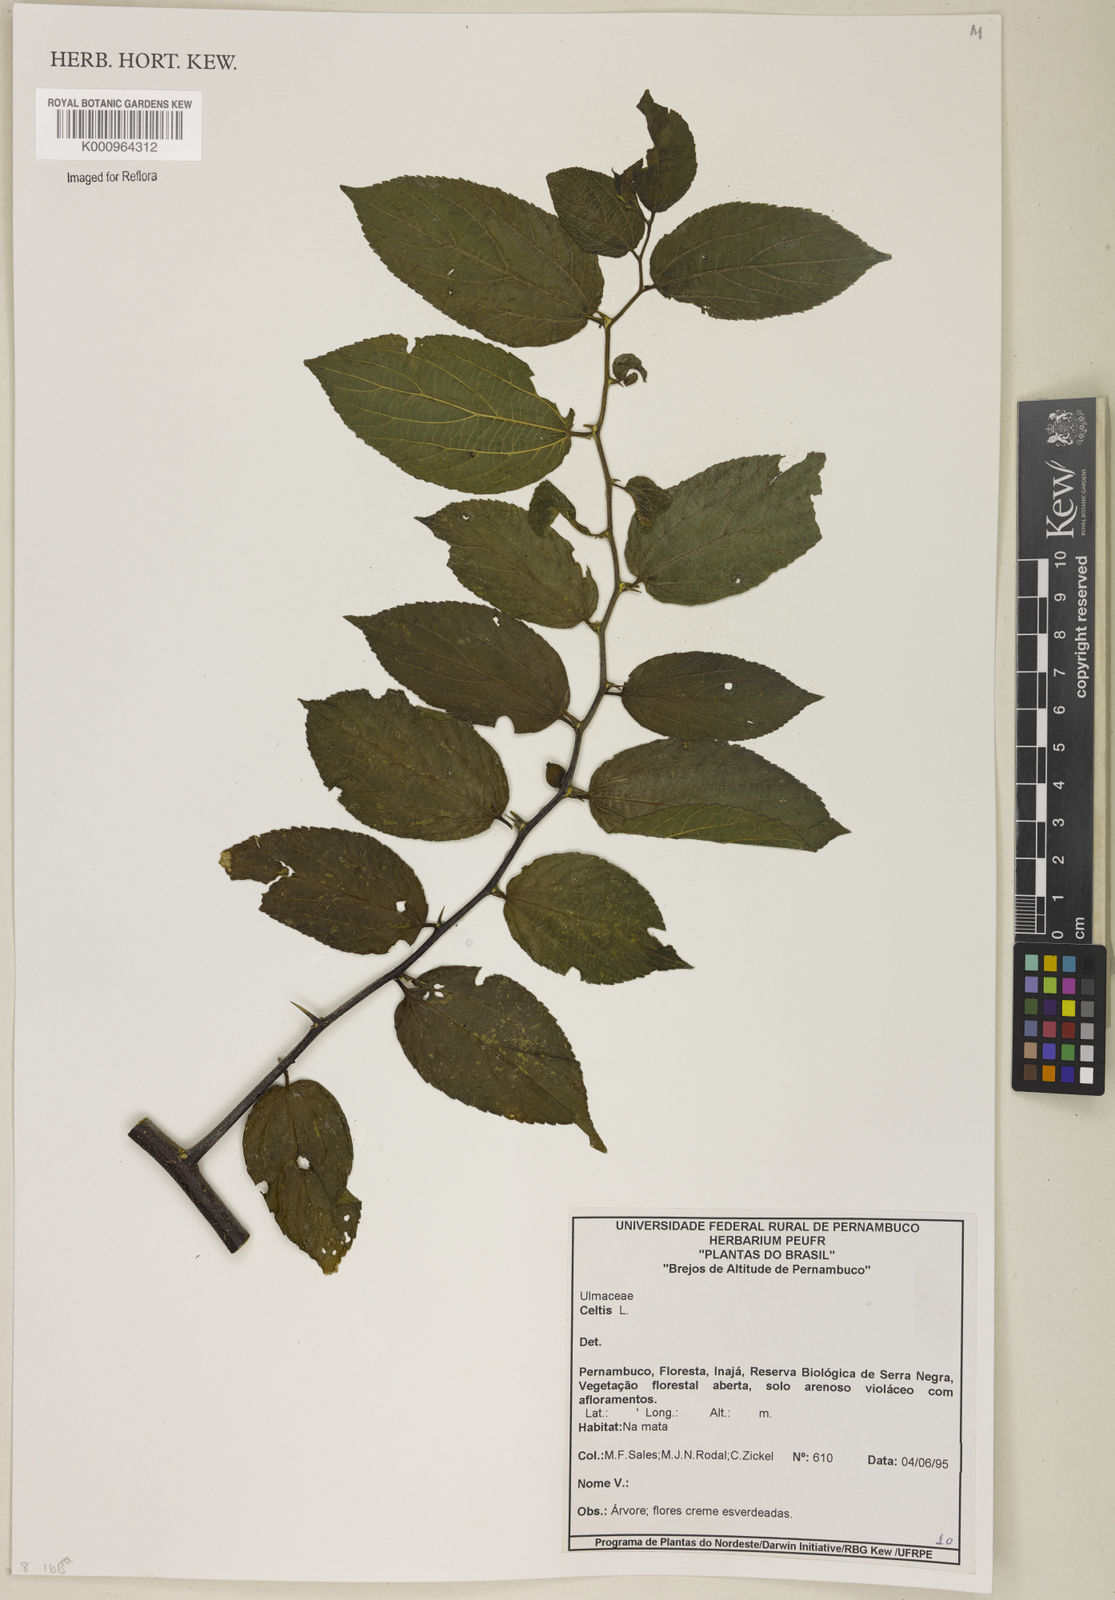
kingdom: Plantae
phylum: Tracheophyta
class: Magnoliopsida
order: Rosales
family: Cannabaceae
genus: Celtis
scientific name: Celtis
